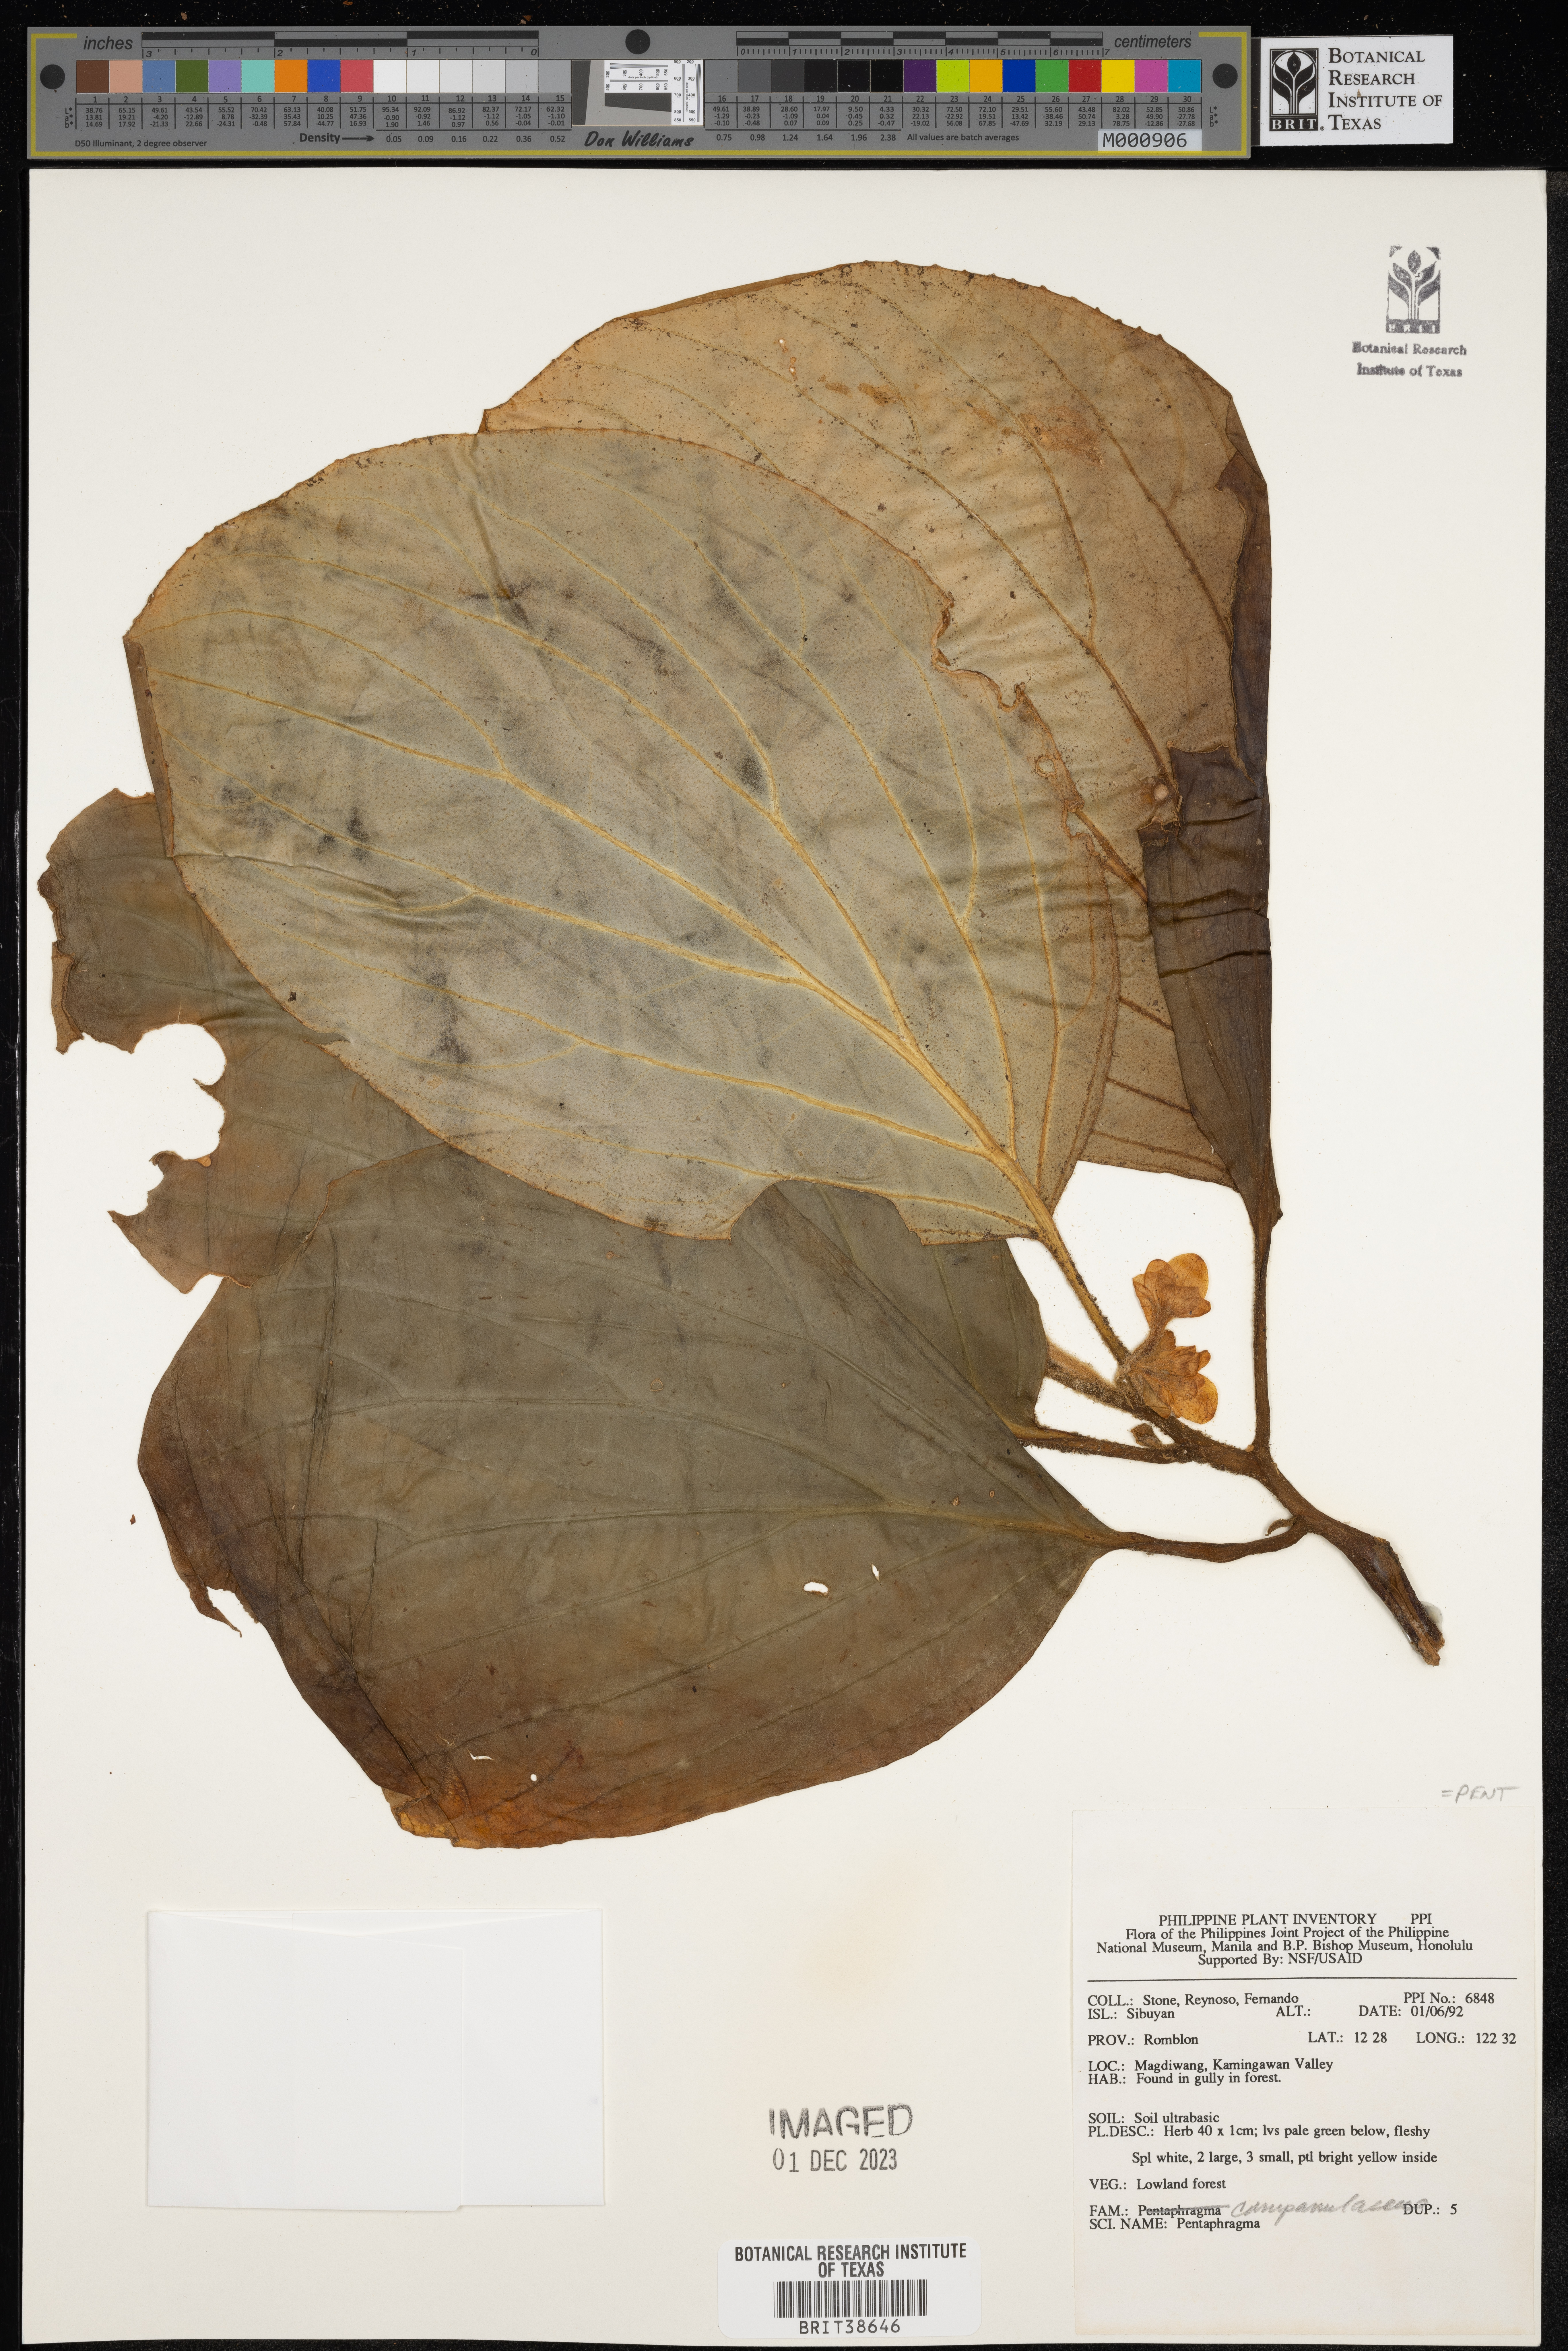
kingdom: Plantae
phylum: Tracheophyta
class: Magnoliopsida
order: Asterales
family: Pentaphragmataceae
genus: Pentaphragma
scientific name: Pentaphragma
